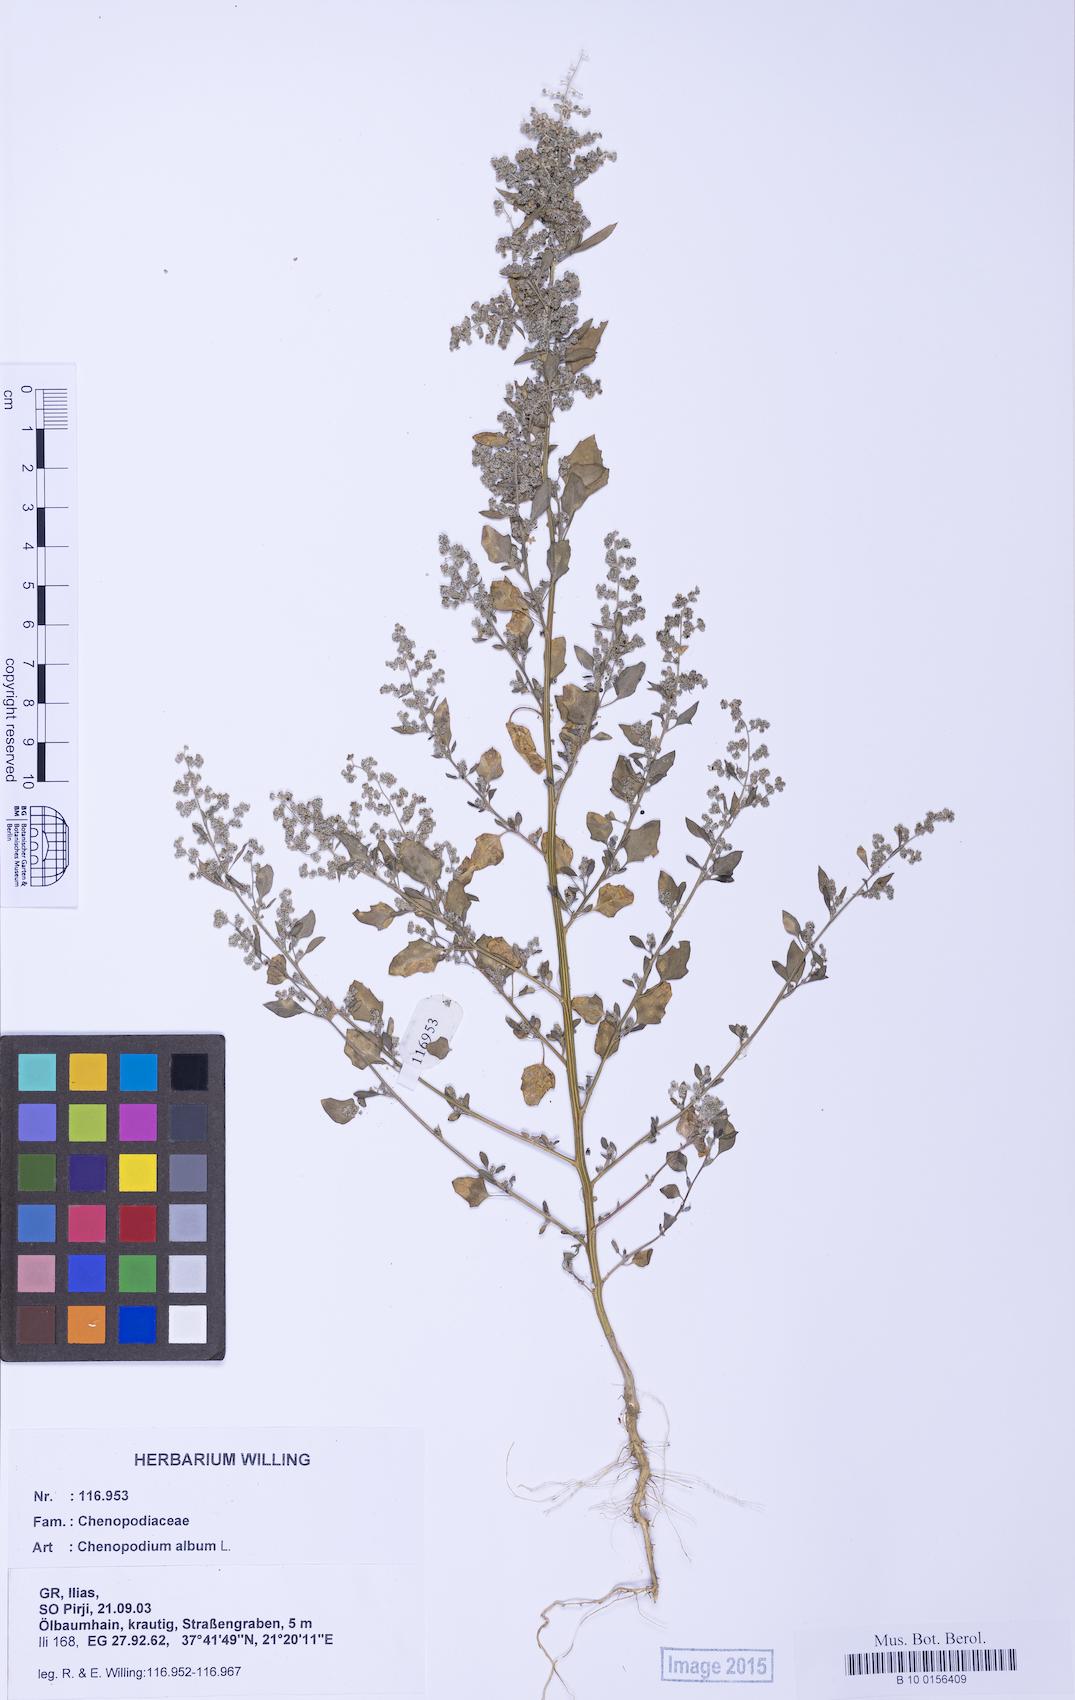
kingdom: Plantae
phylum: Tracheophyta
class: Magnoliopsida
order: Caryophyllales
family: Amaranthaceae
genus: Chenopodium
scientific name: Chenopodium album
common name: Fat-hen
